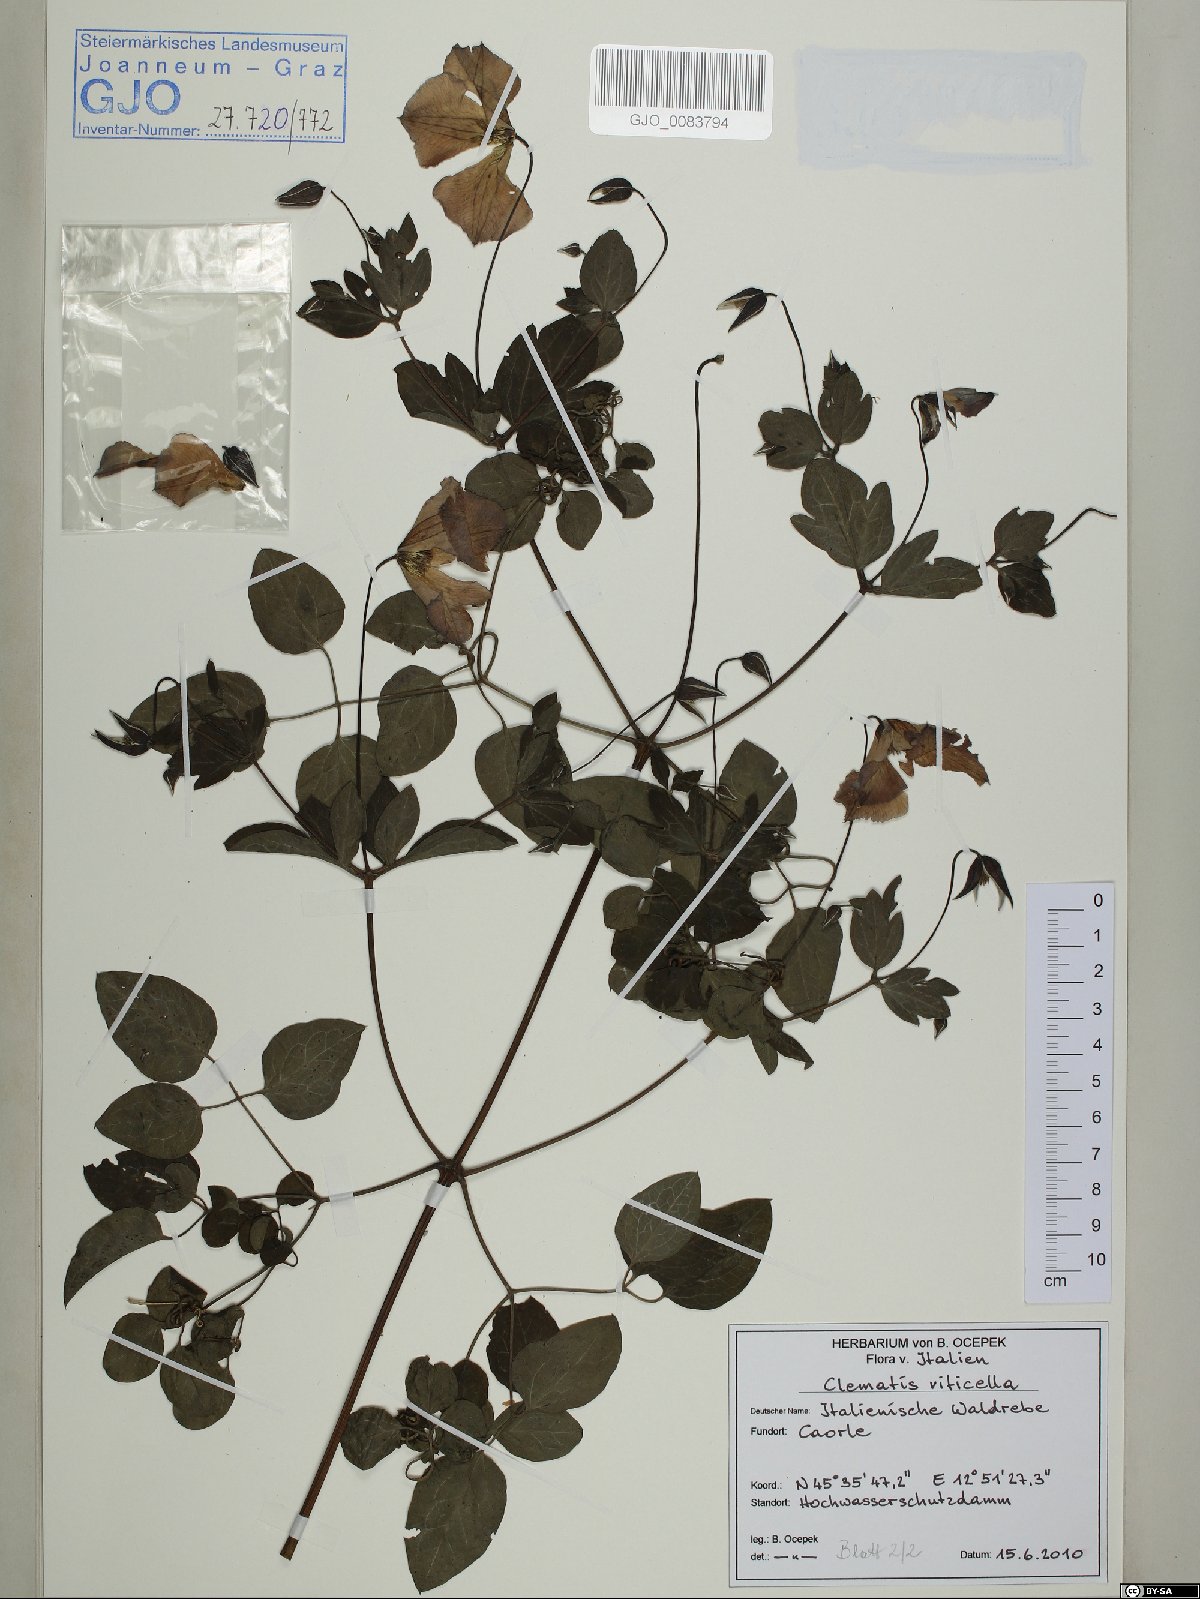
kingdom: Plantae
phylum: Tracheophyta
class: Magnoliopsida
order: Ranunculales
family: Ranunculaceae
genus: Clematis
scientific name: Clematis viticella
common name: Purple clematis
